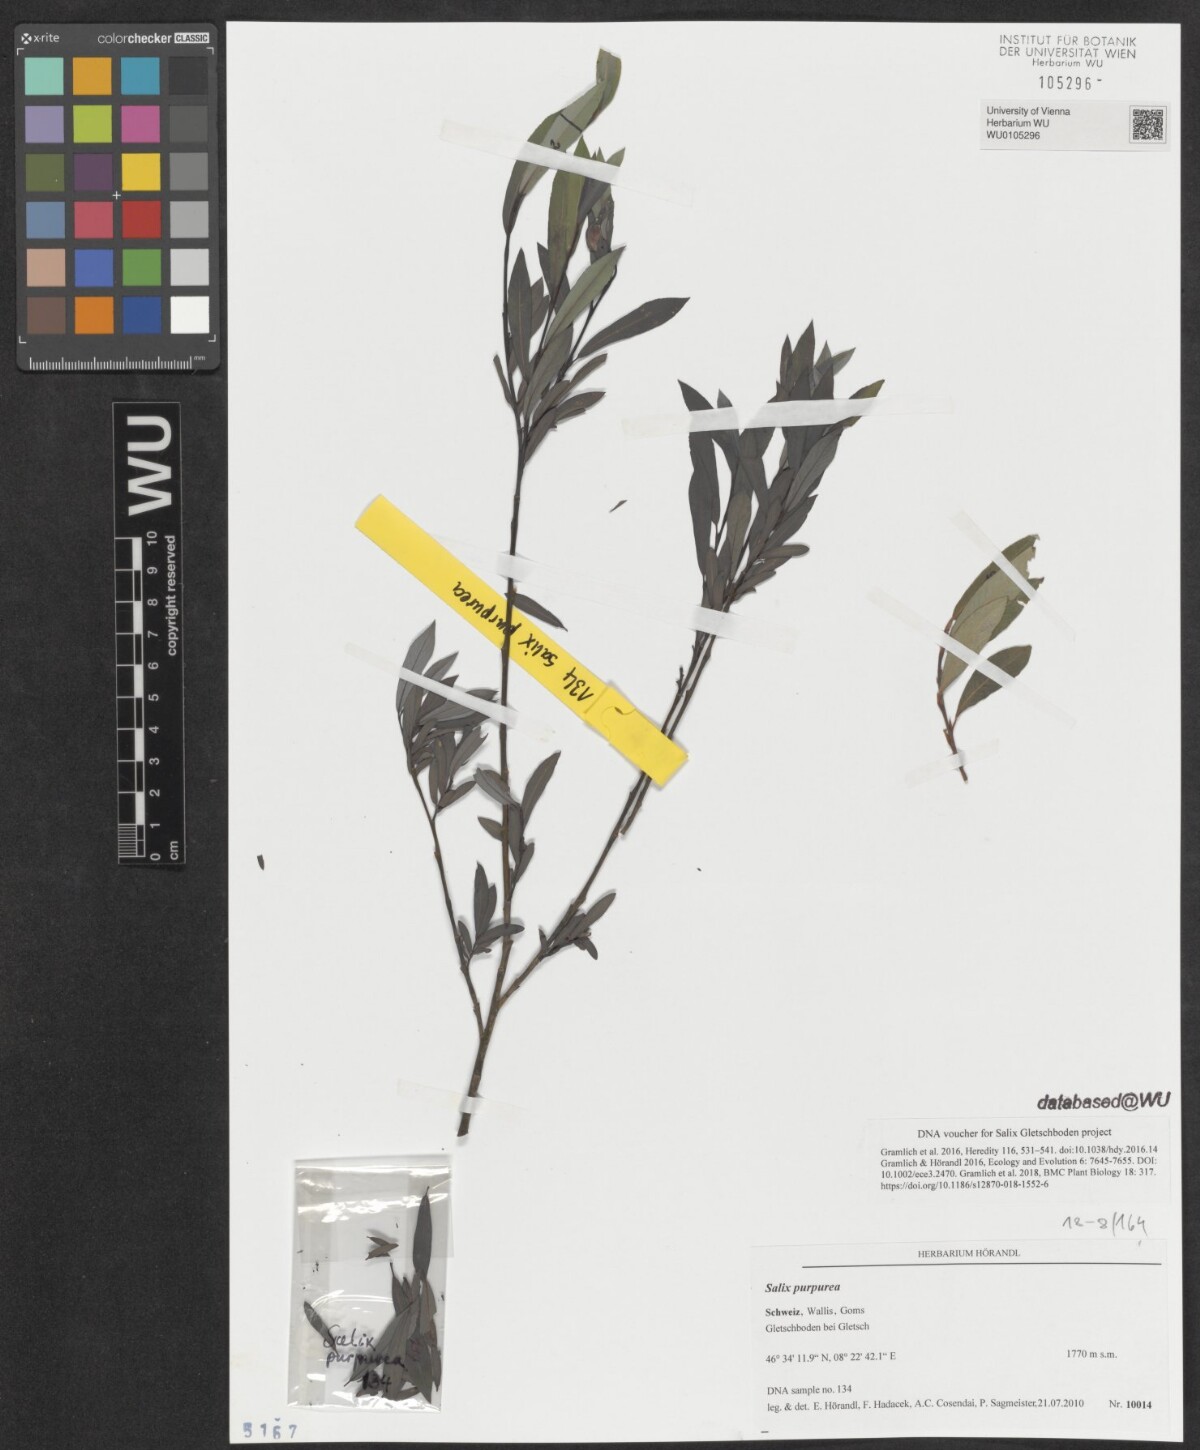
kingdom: Plantae
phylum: Tracheophyta
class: Magnoliopsida
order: Malpighiales
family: Salicaceae
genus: Salix
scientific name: Salix purpurea
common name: Purple willow
